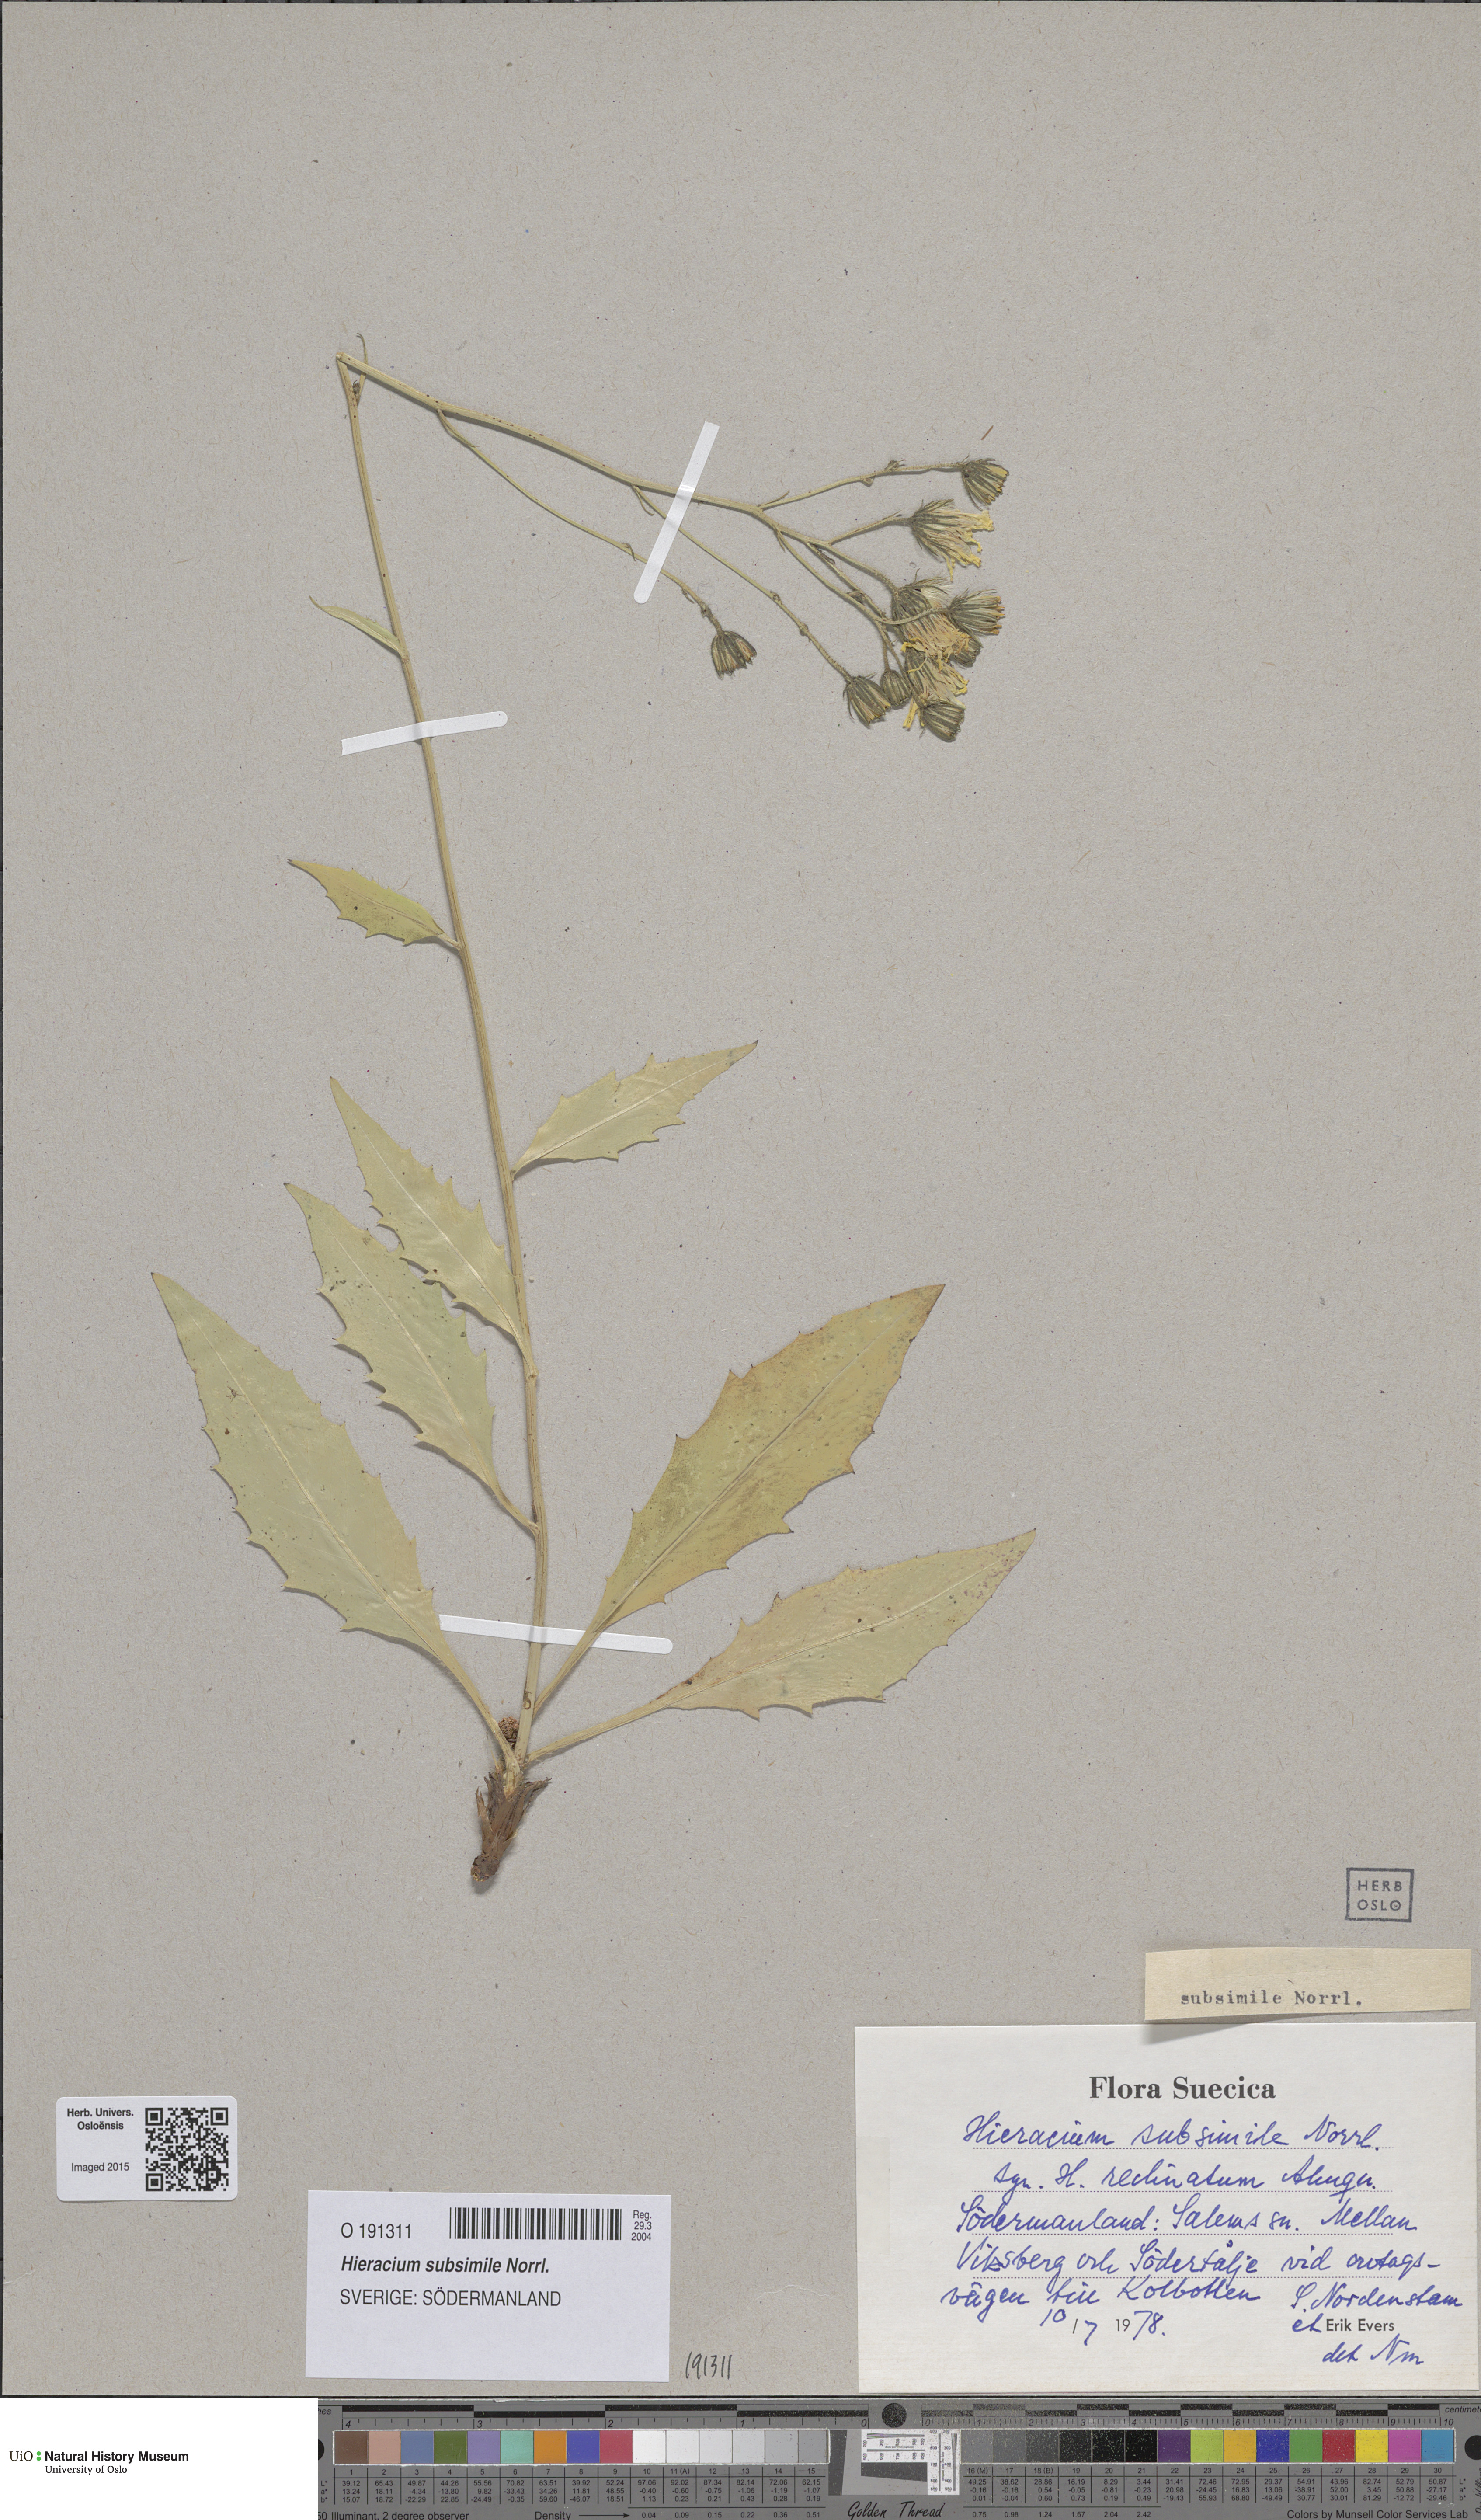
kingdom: Plantae
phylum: Tracheophyta
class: Magnoliopsida
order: Asterales
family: Asteraceae
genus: Hieracium
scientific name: Hieracium caesium
